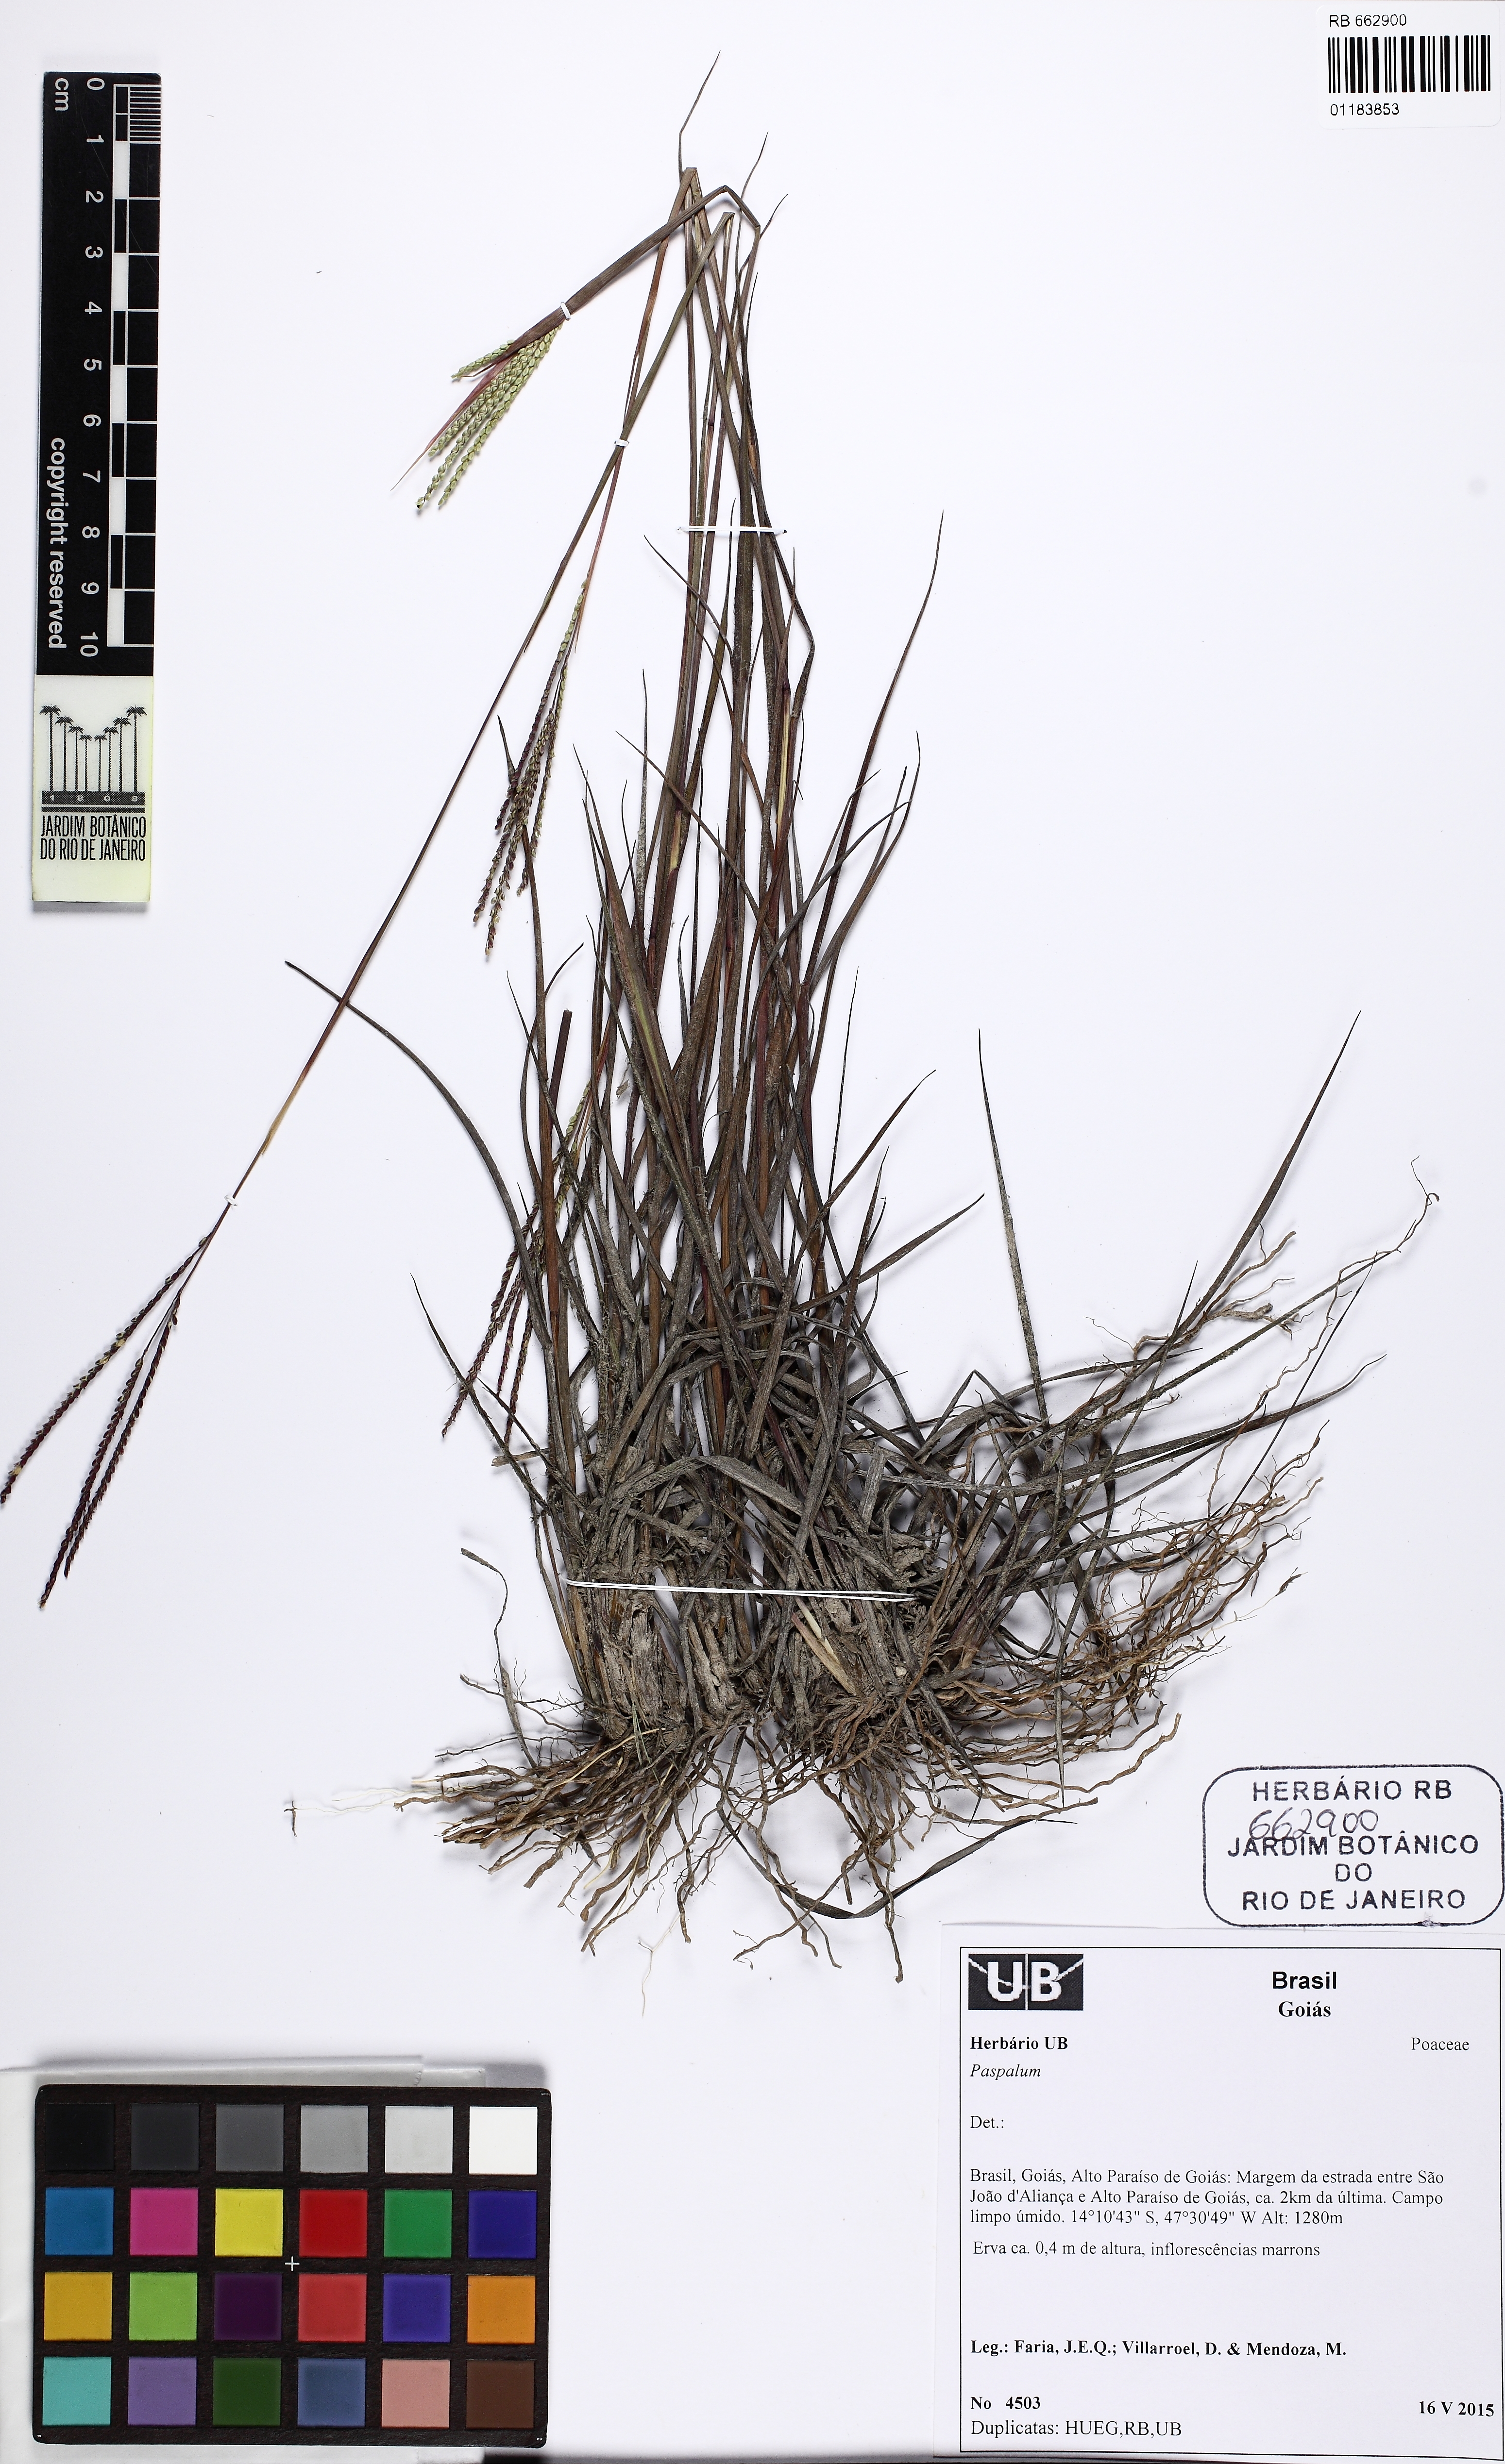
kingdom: Plantae
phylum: Tracheophyta
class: Liliopsida
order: Poales
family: Poaceae
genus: Paspalum
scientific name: Paspalum
